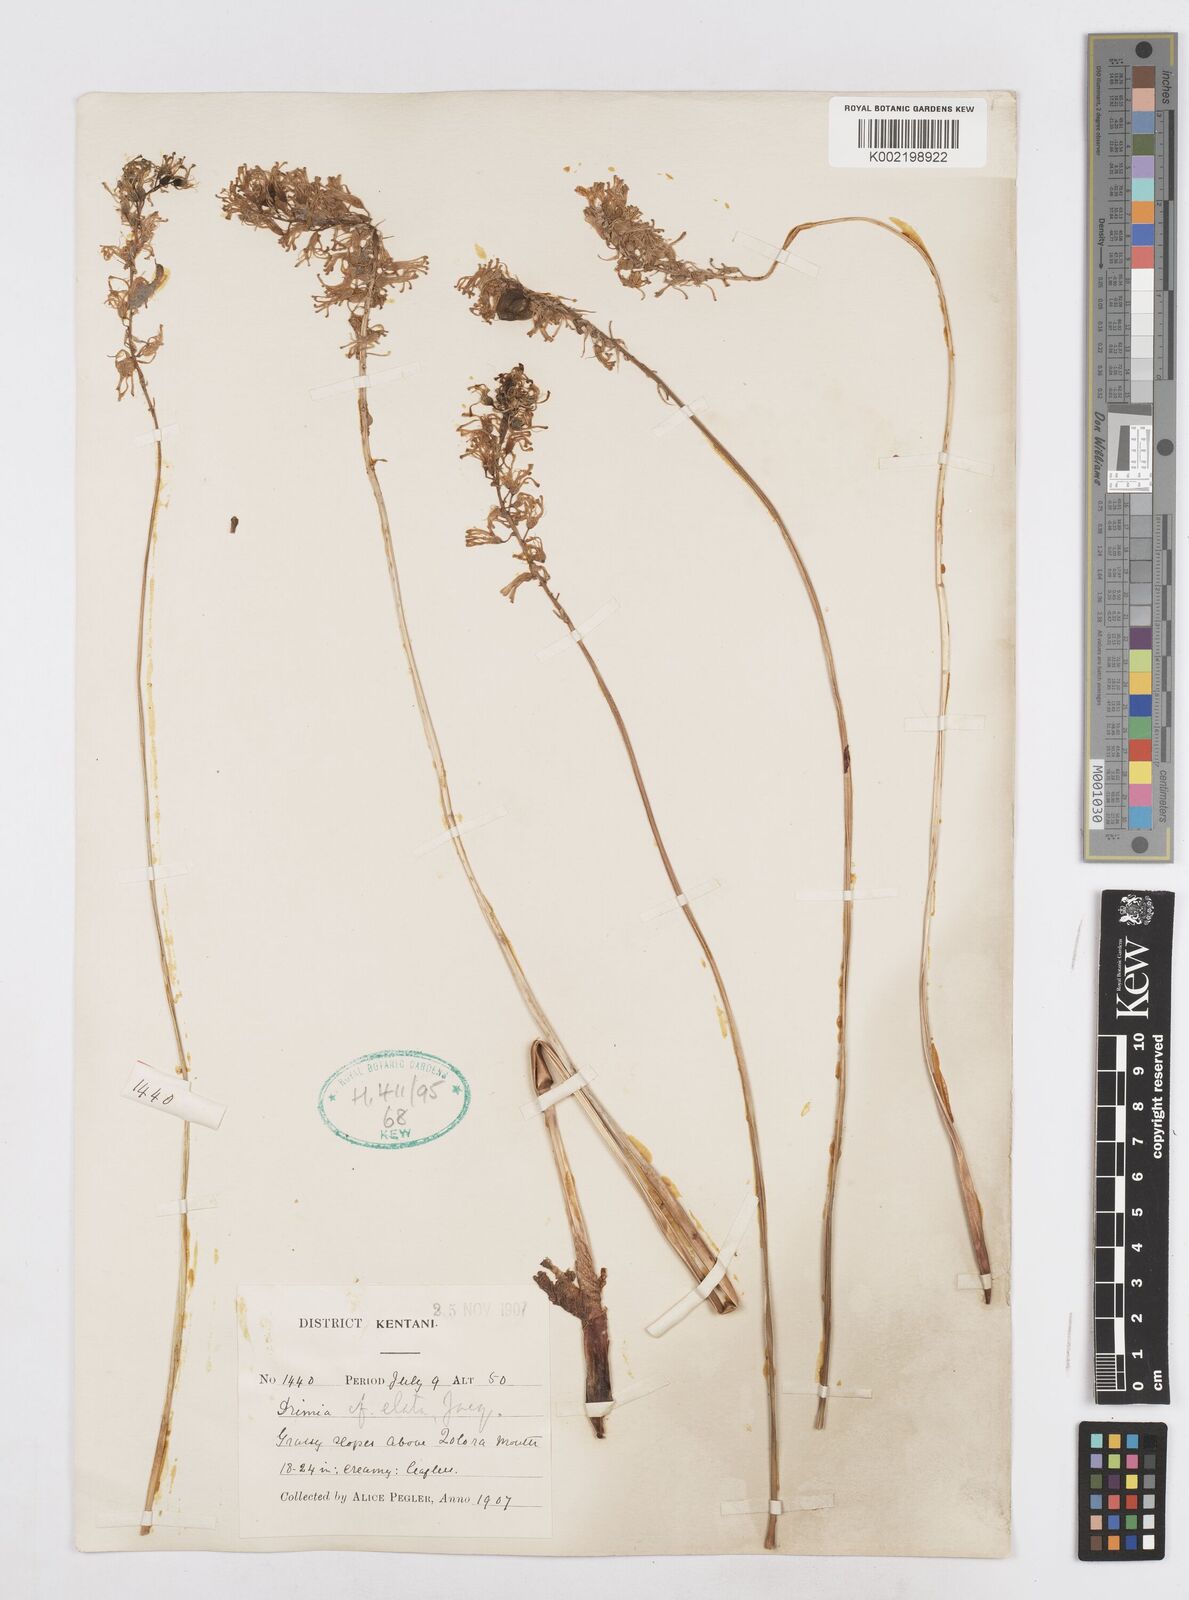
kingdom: Plantae
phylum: Tracheophyta
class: Liliopsida
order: Asparagales
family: Asparagaceae
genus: Drimia
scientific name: Drimia elata
